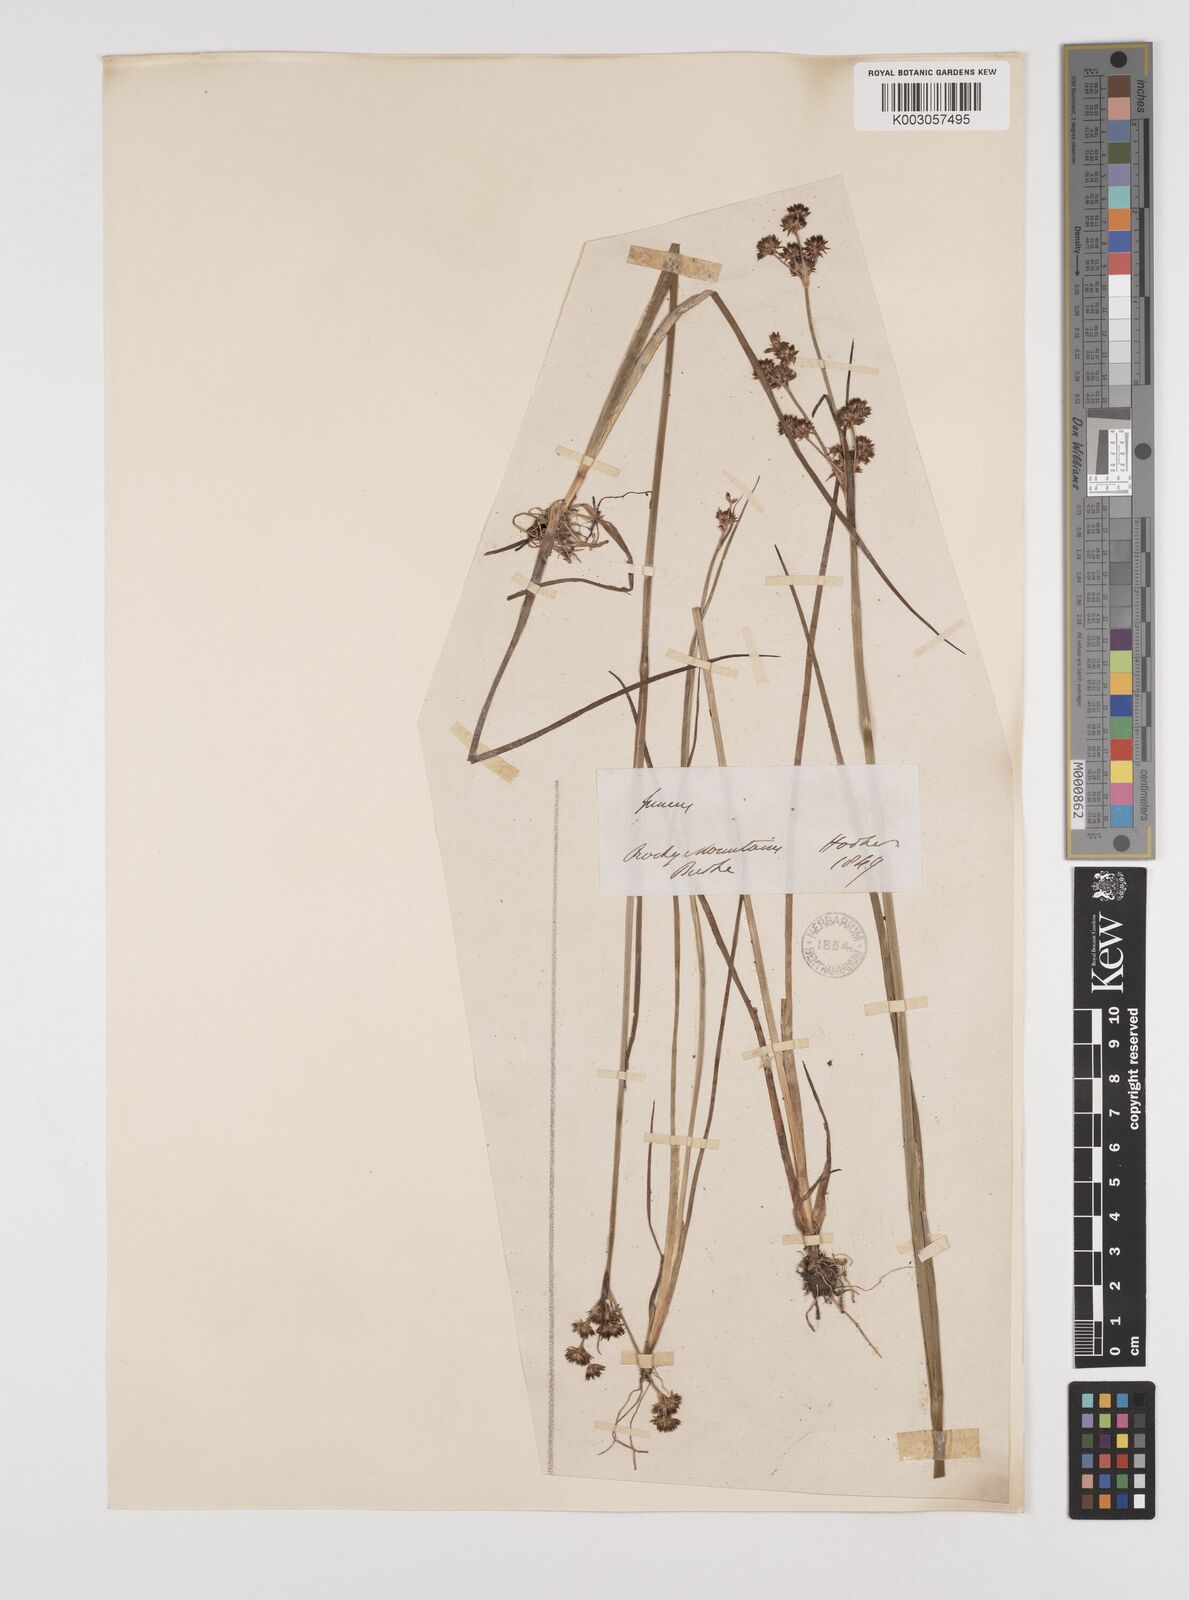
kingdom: Plantae
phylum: Tracheophyta
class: Liliopsida
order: Poales
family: Juncaceae
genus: Juncus
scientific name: Juncus acuminatus
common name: Knotty-leaved rush
